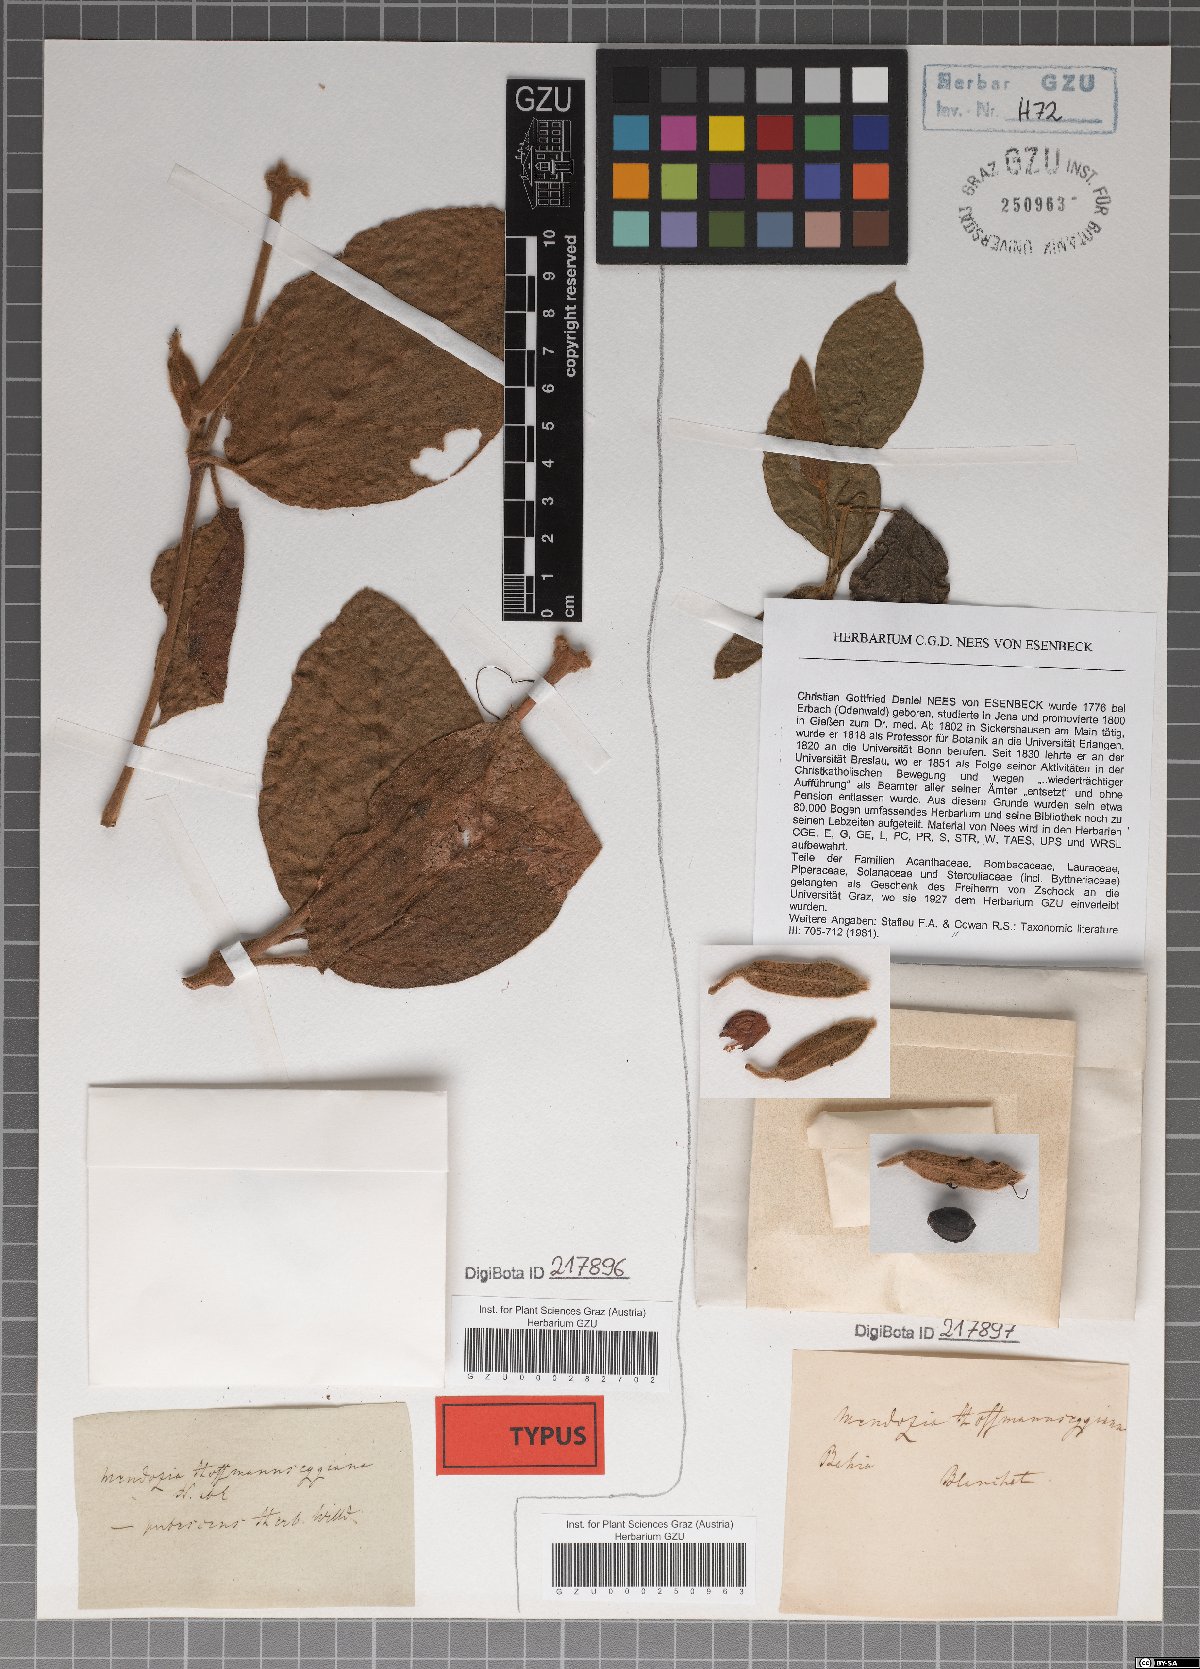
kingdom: Plantae
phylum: Tracheophyta
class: Magnoliopsida
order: Lamiales
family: Acanthaceae
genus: Mendoncia
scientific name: Mendoncia hoffmannseggiana
